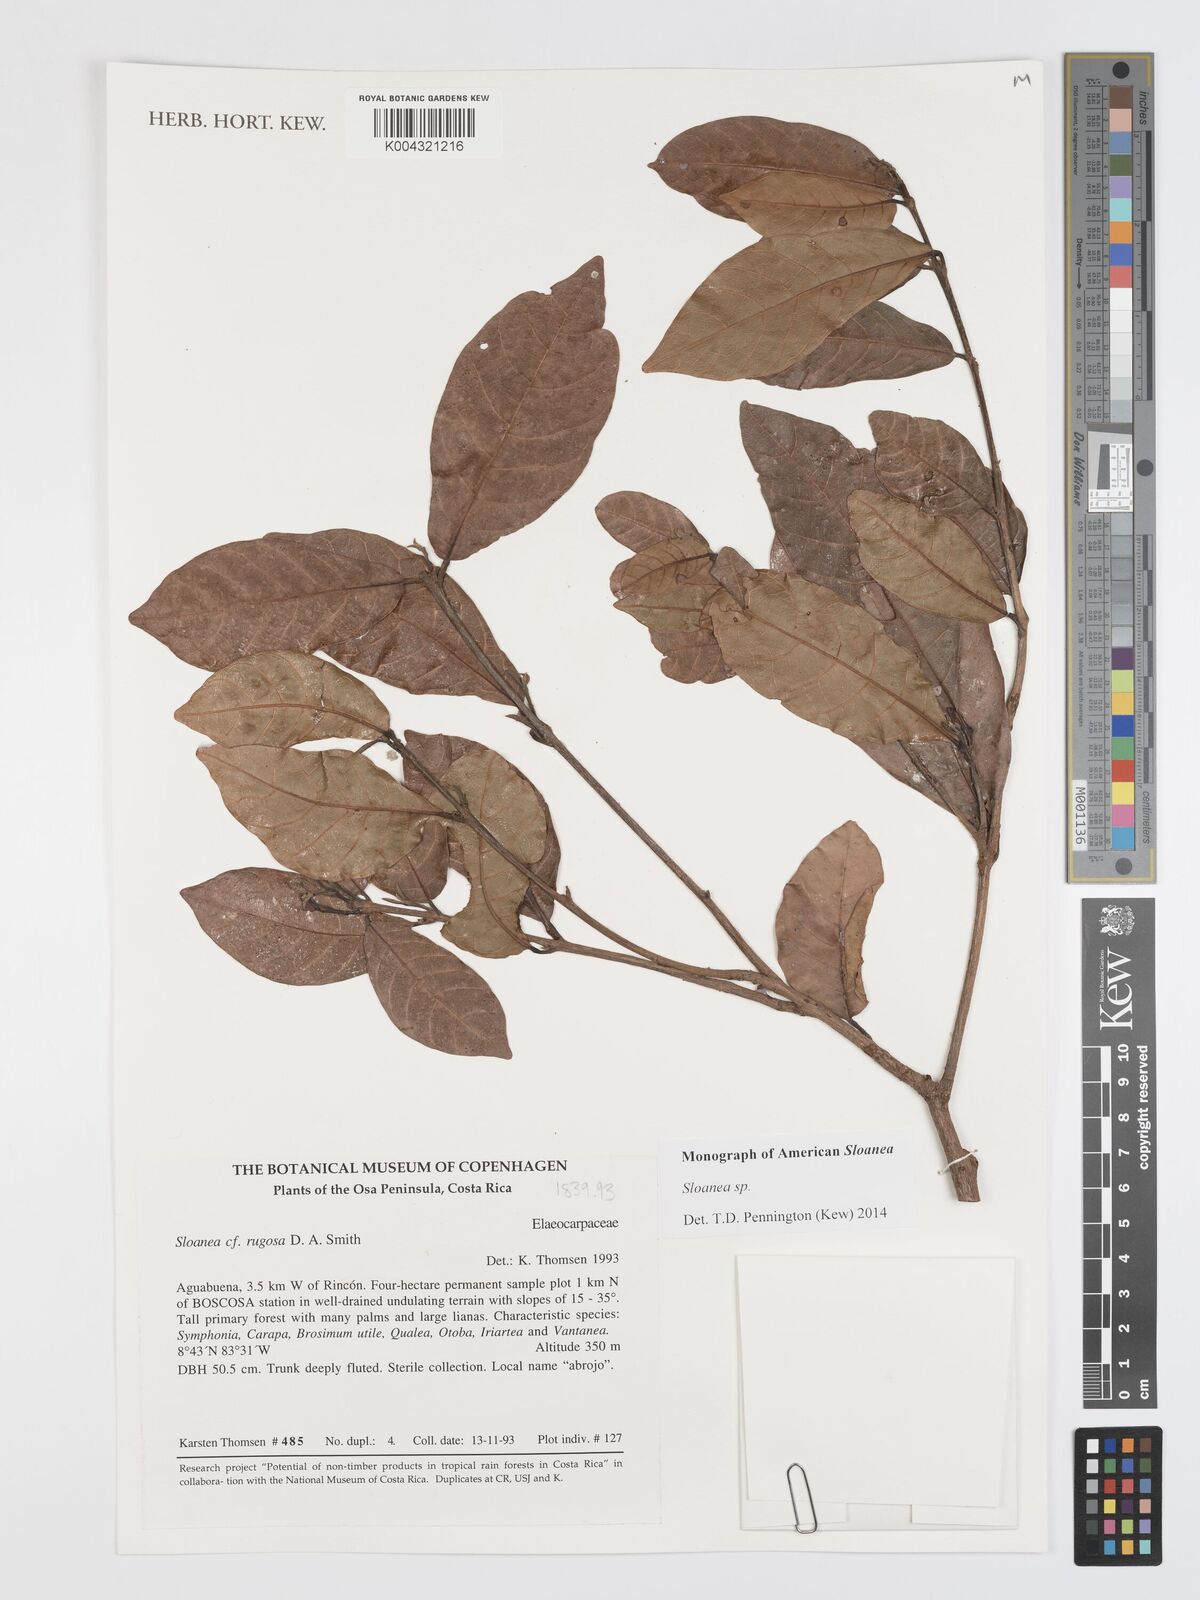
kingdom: Plantae
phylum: Tracheophyta
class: Magnoliopsida
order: Oxalidales
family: Elaeocarpaceae
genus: Sloanea
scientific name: Sloanea
